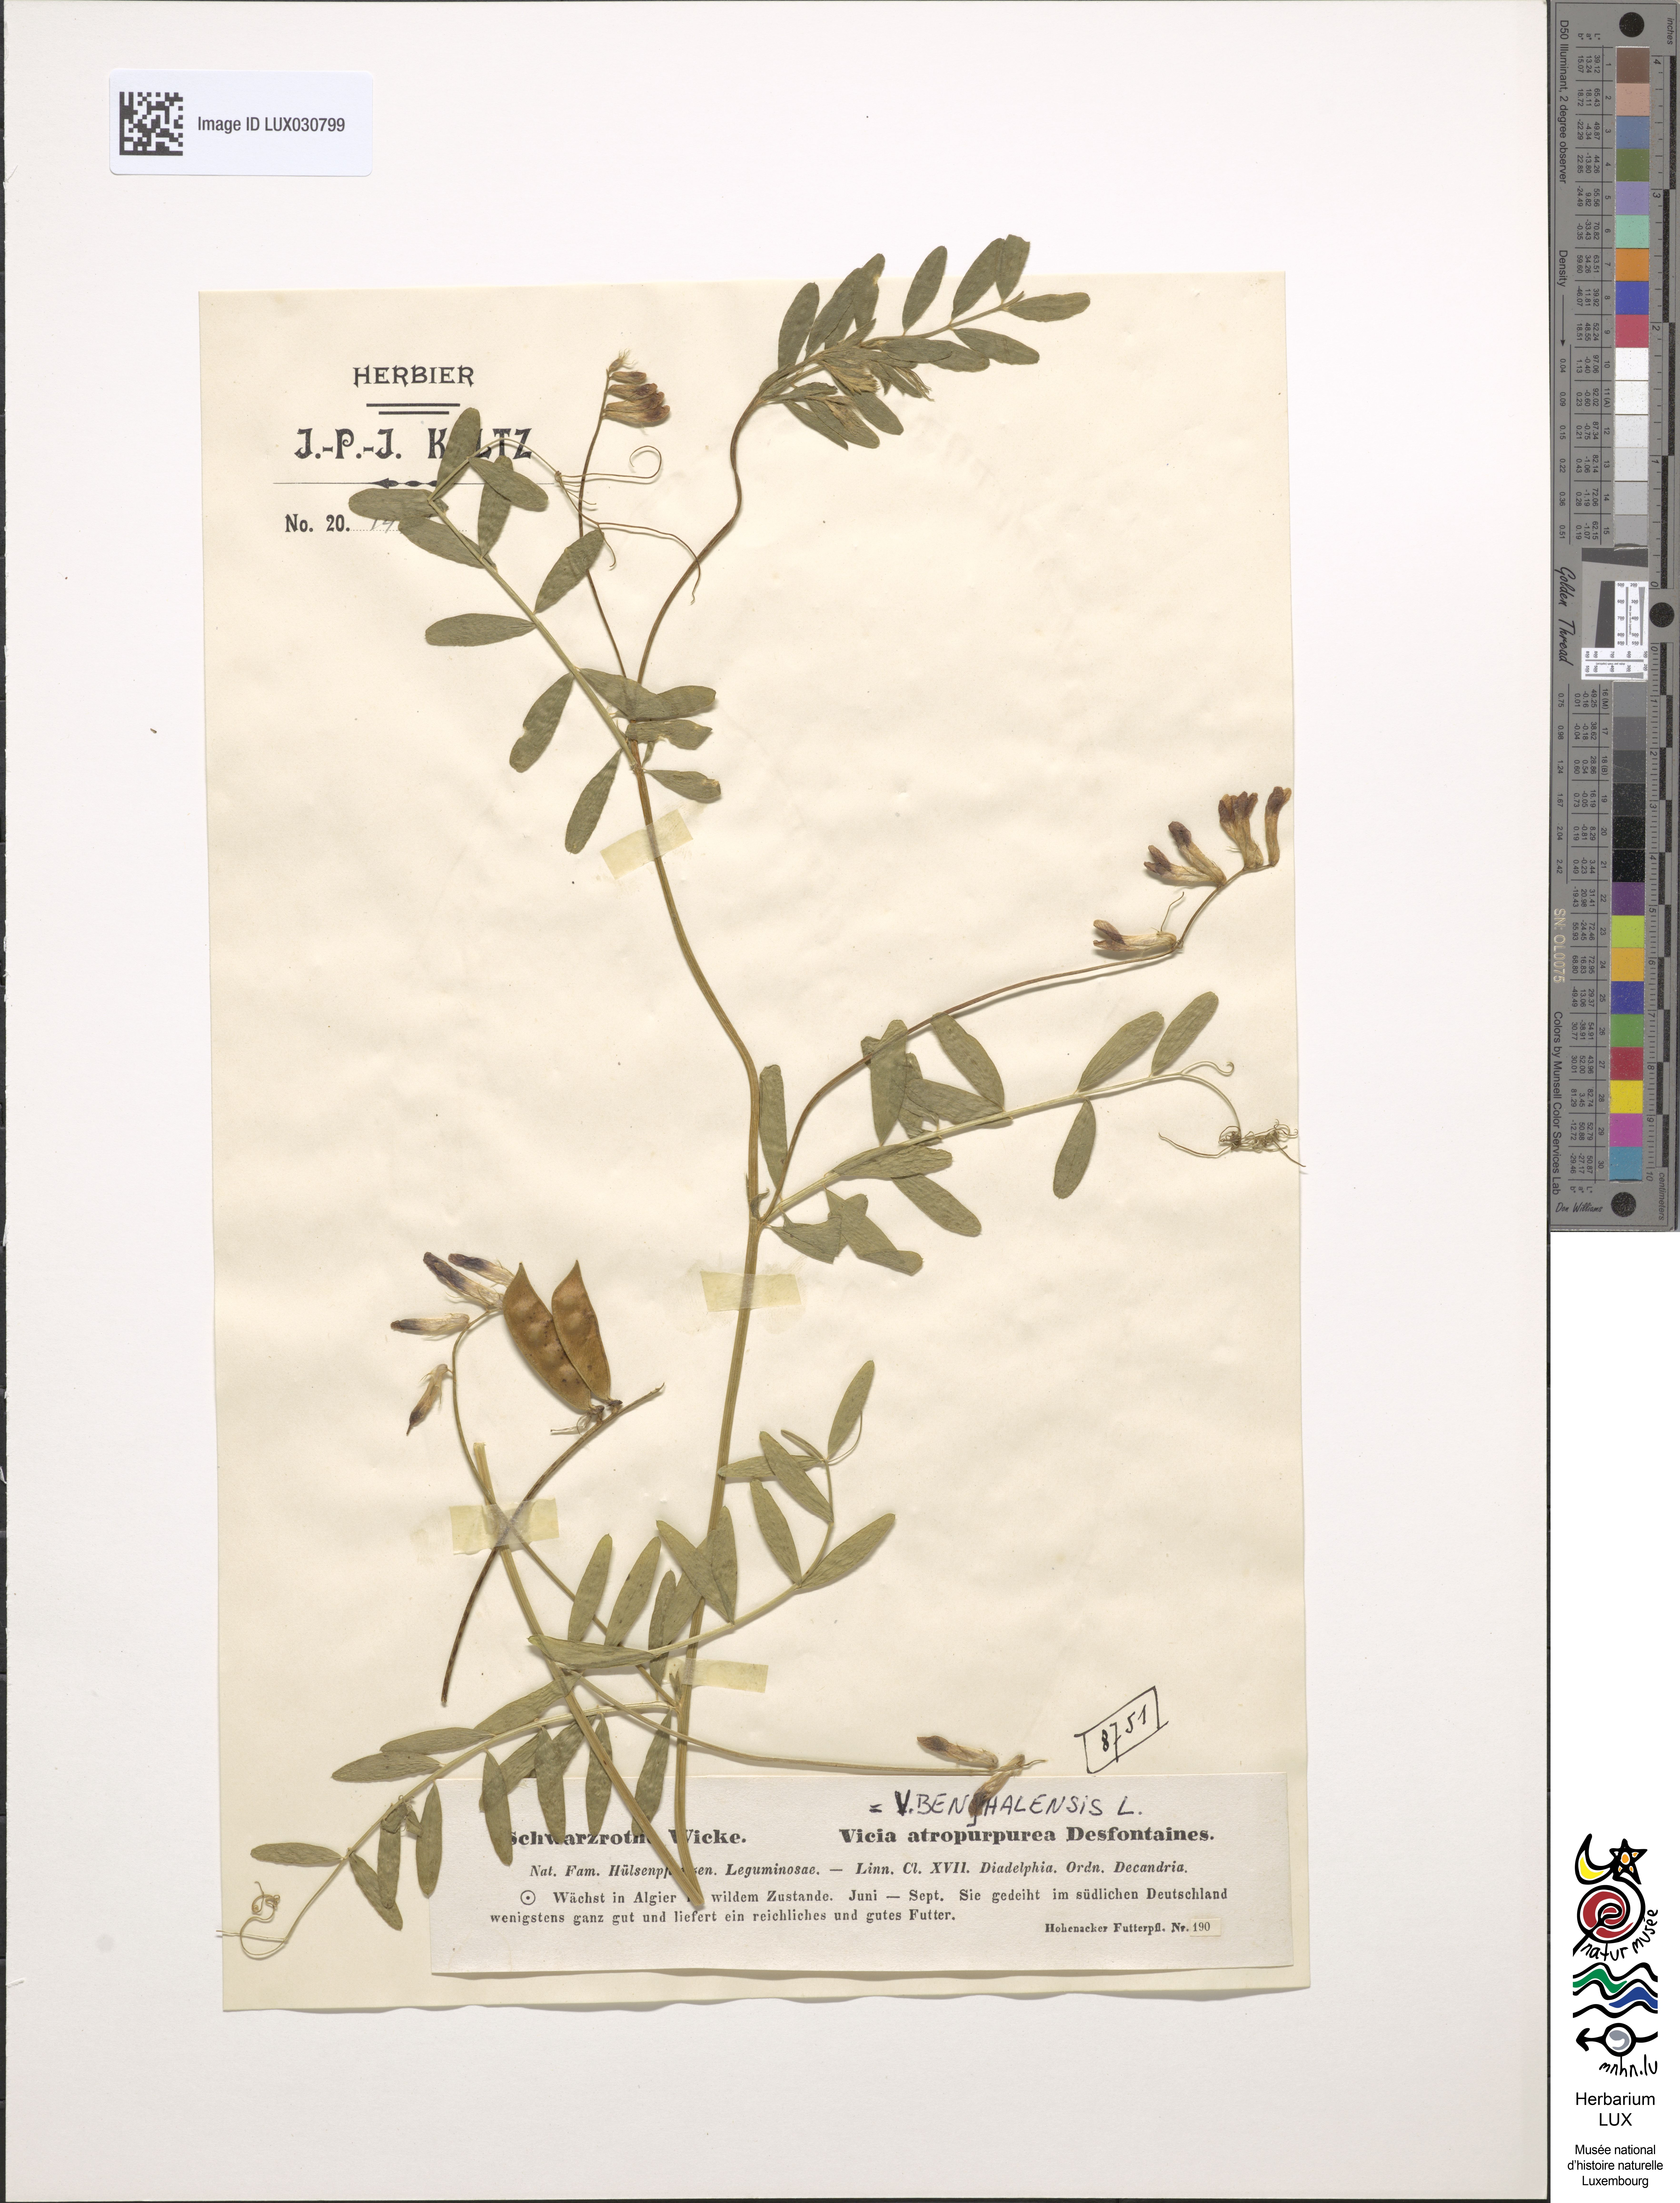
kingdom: Plantae
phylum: Tracheophyta
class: Magnoliopsida
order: Fabales
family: Fabaceae
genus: Vicia
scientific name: Vicia benghalensis
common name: Purple vetch
